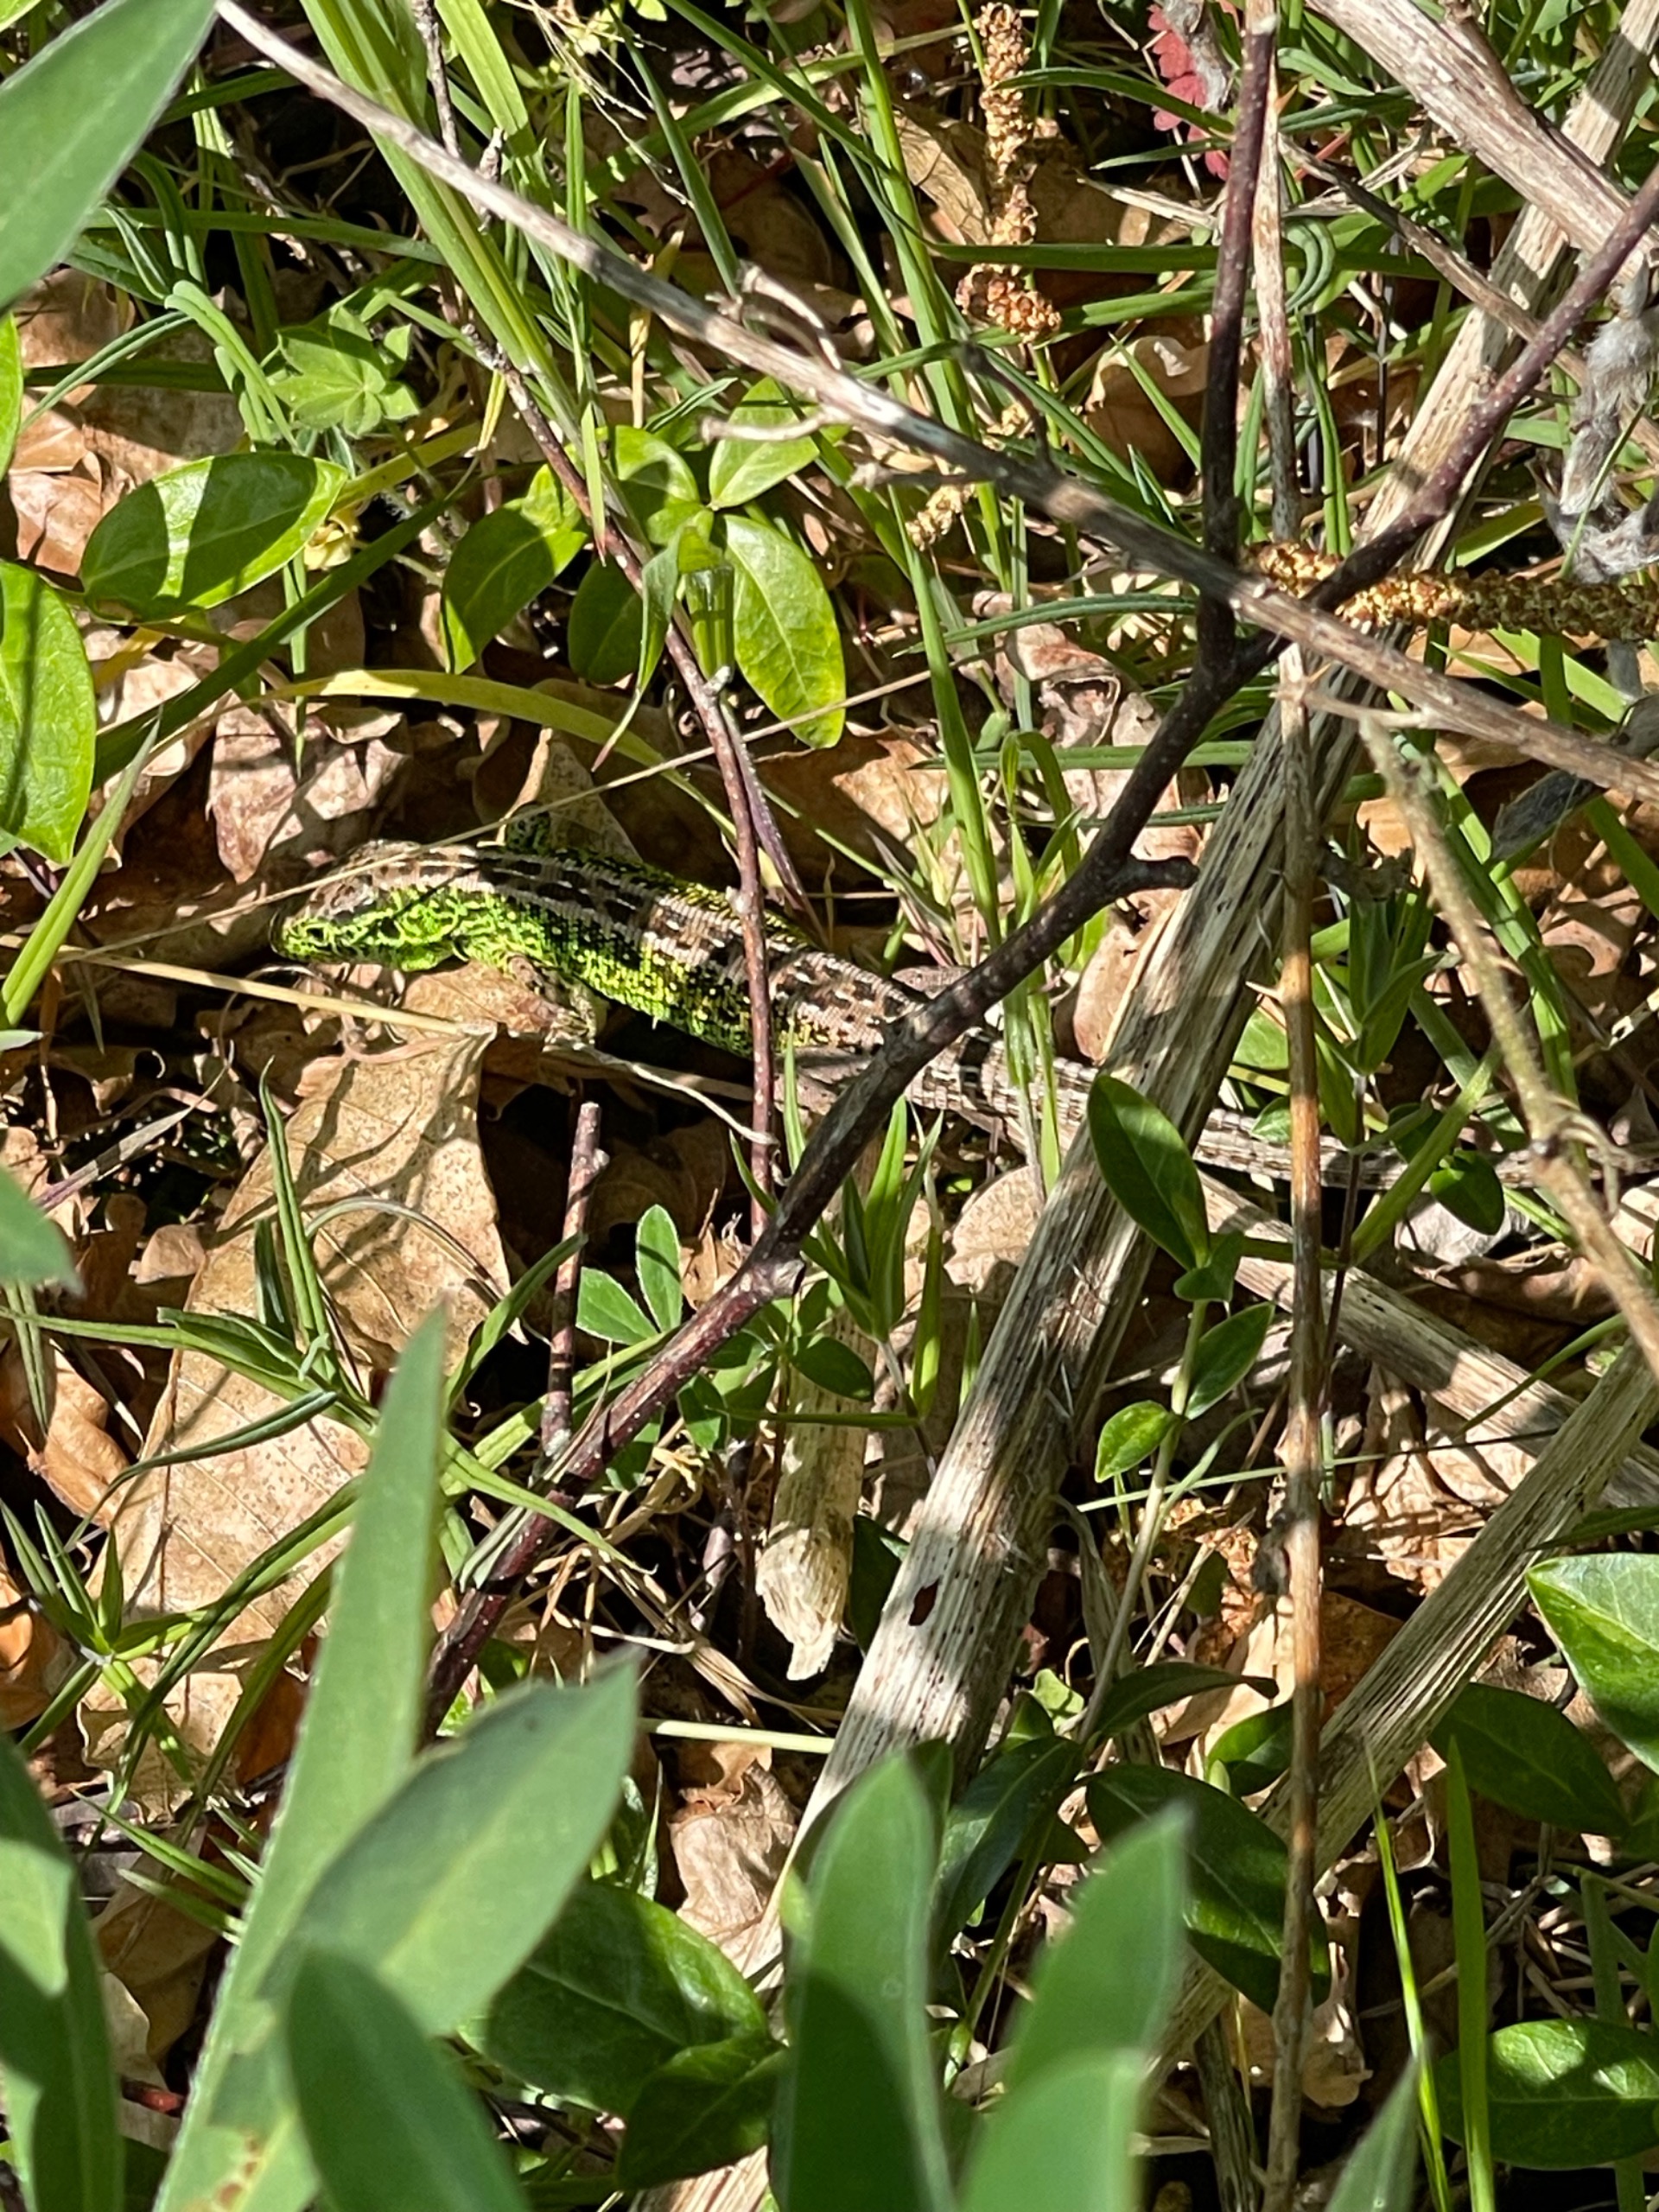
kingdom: Animalia
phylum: Chordata
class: Squamata
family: Lacertidae
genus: Lacerta
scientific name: Lacerta agilis
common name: Markfirben
